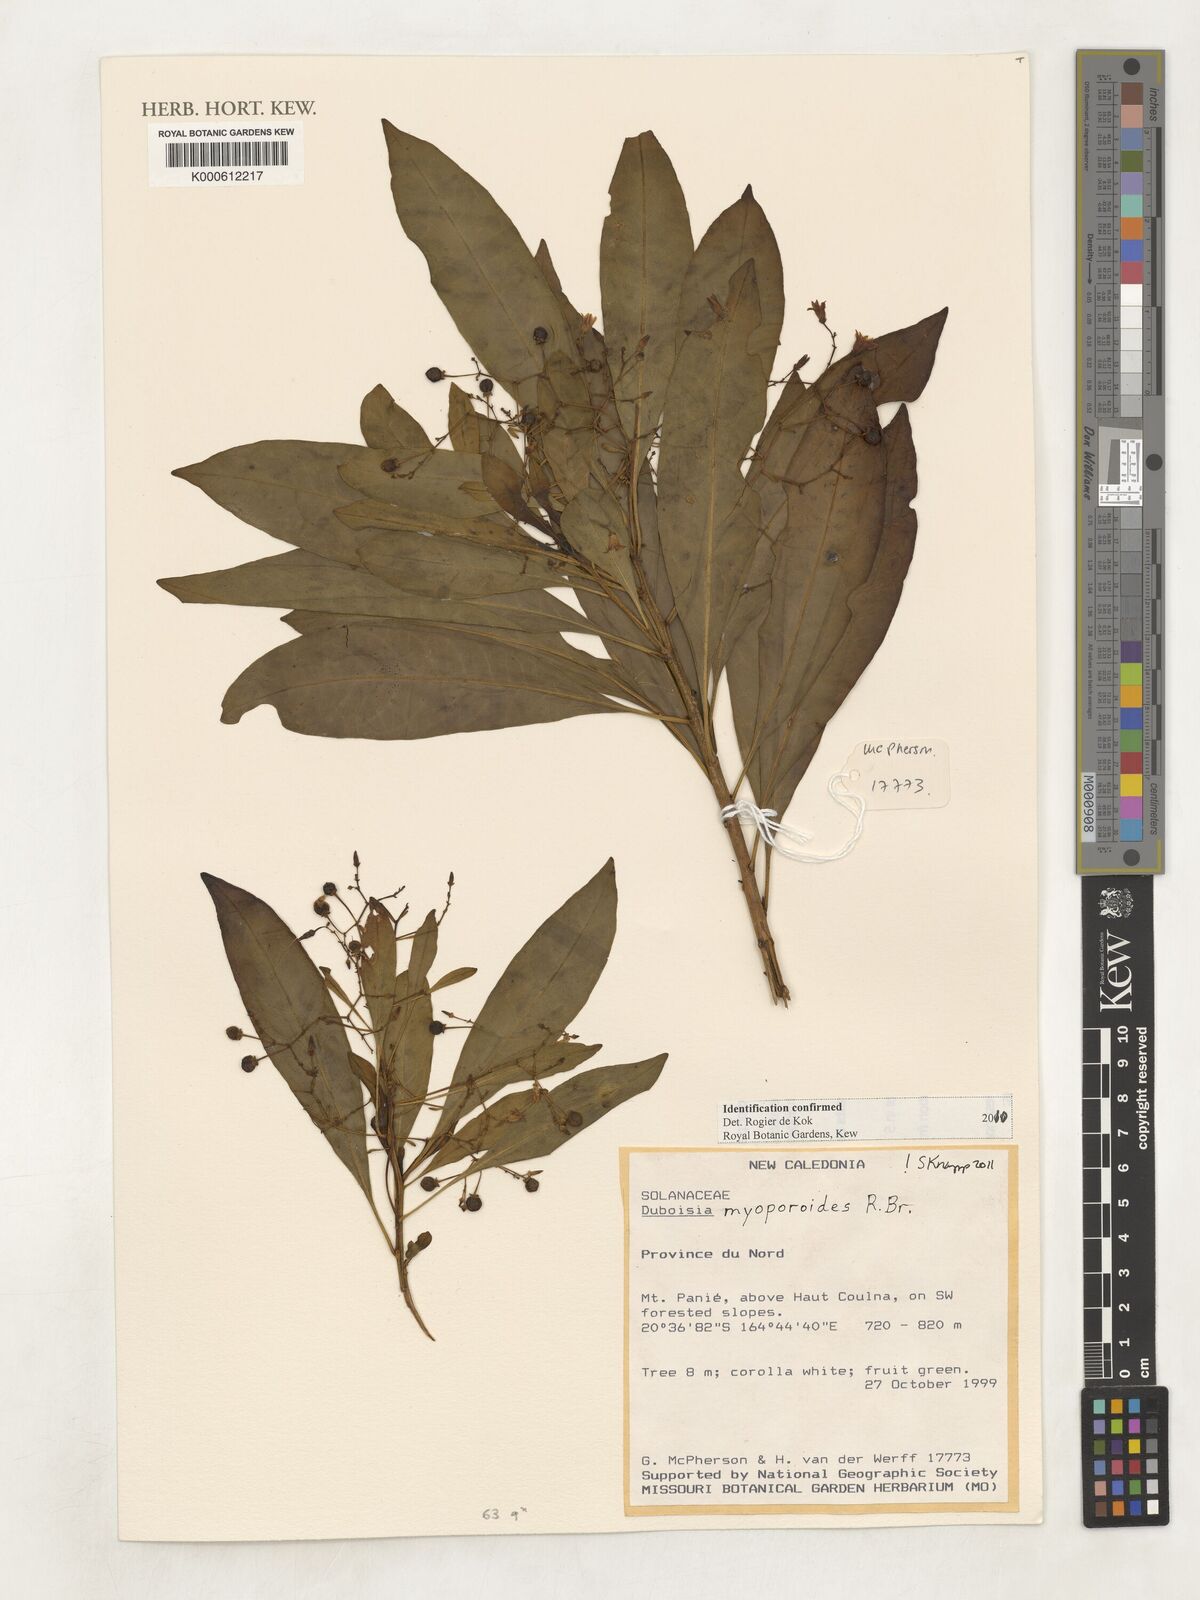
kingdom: Plantae
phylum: Tracheophyta
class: Magnoliopsida
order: Solanales
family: Solanaceae
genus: Duboisia
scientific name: Duboisia myoporoides
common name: Corkwoodtree
